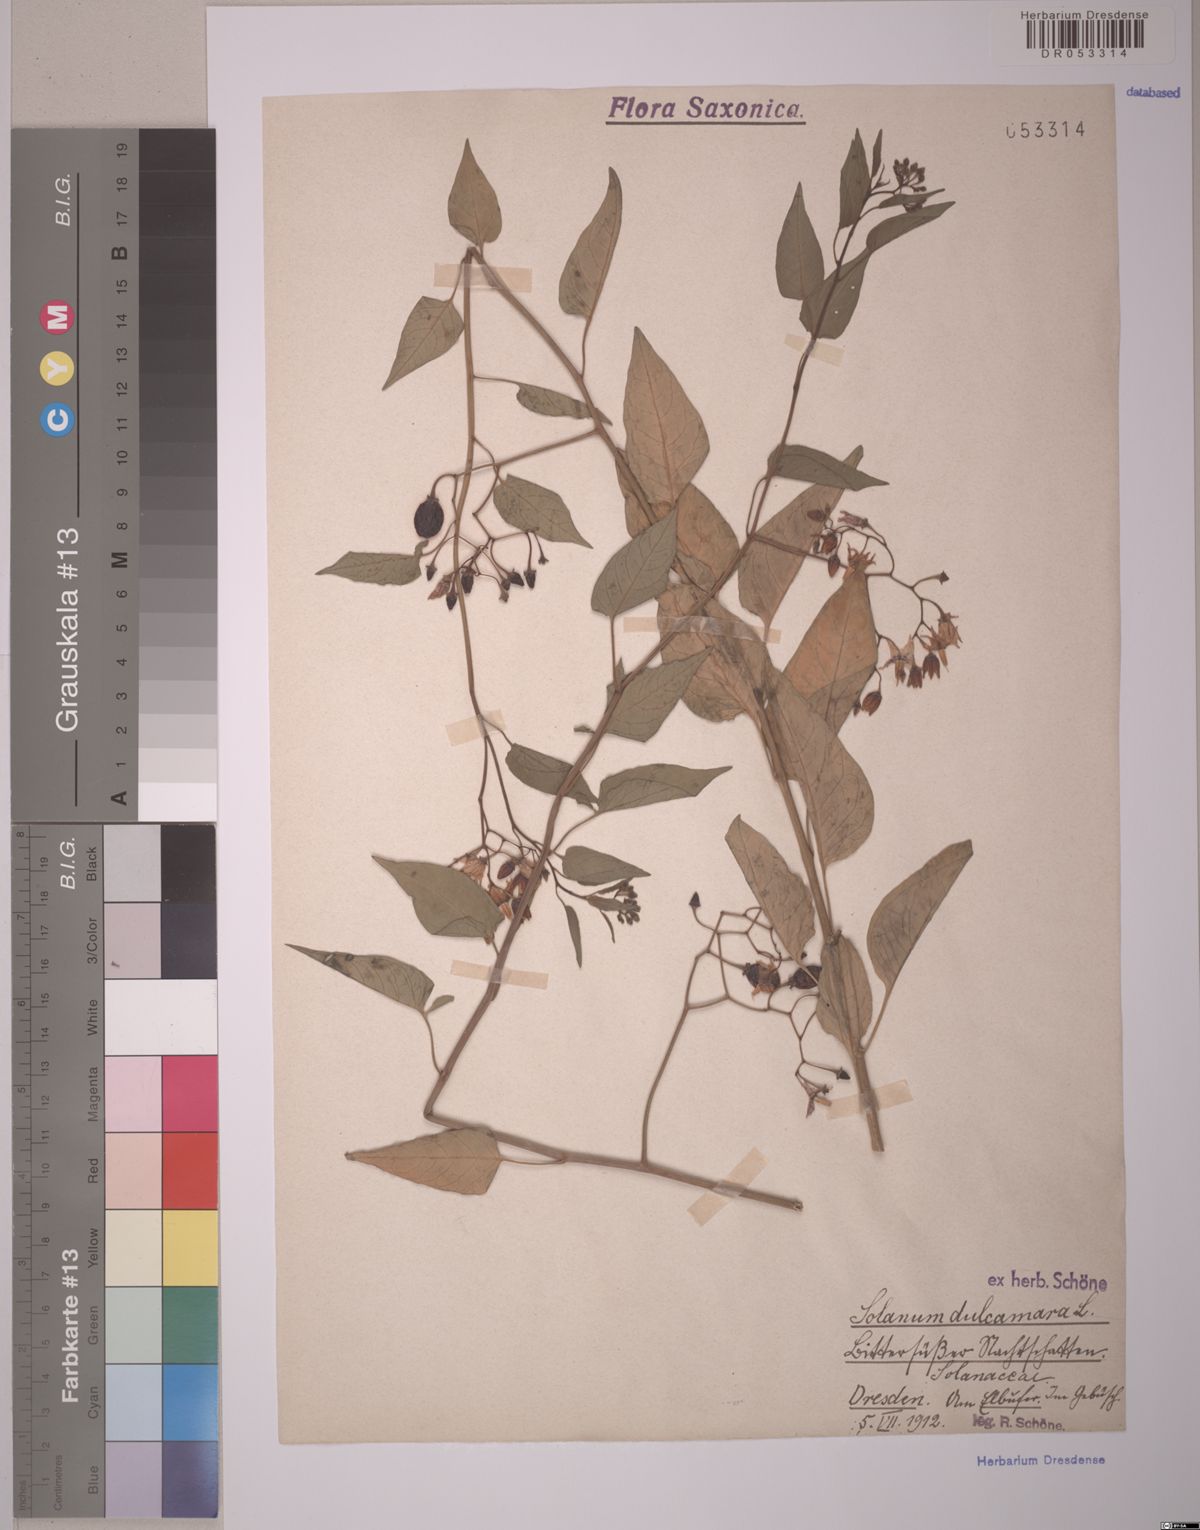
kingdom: Plantae
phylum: Tracheophyta
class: Magnoliopsida
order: Solanales
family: Solanaceae
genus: Solanum
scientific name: Solanum dulcamara
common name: Climbing nightshade
